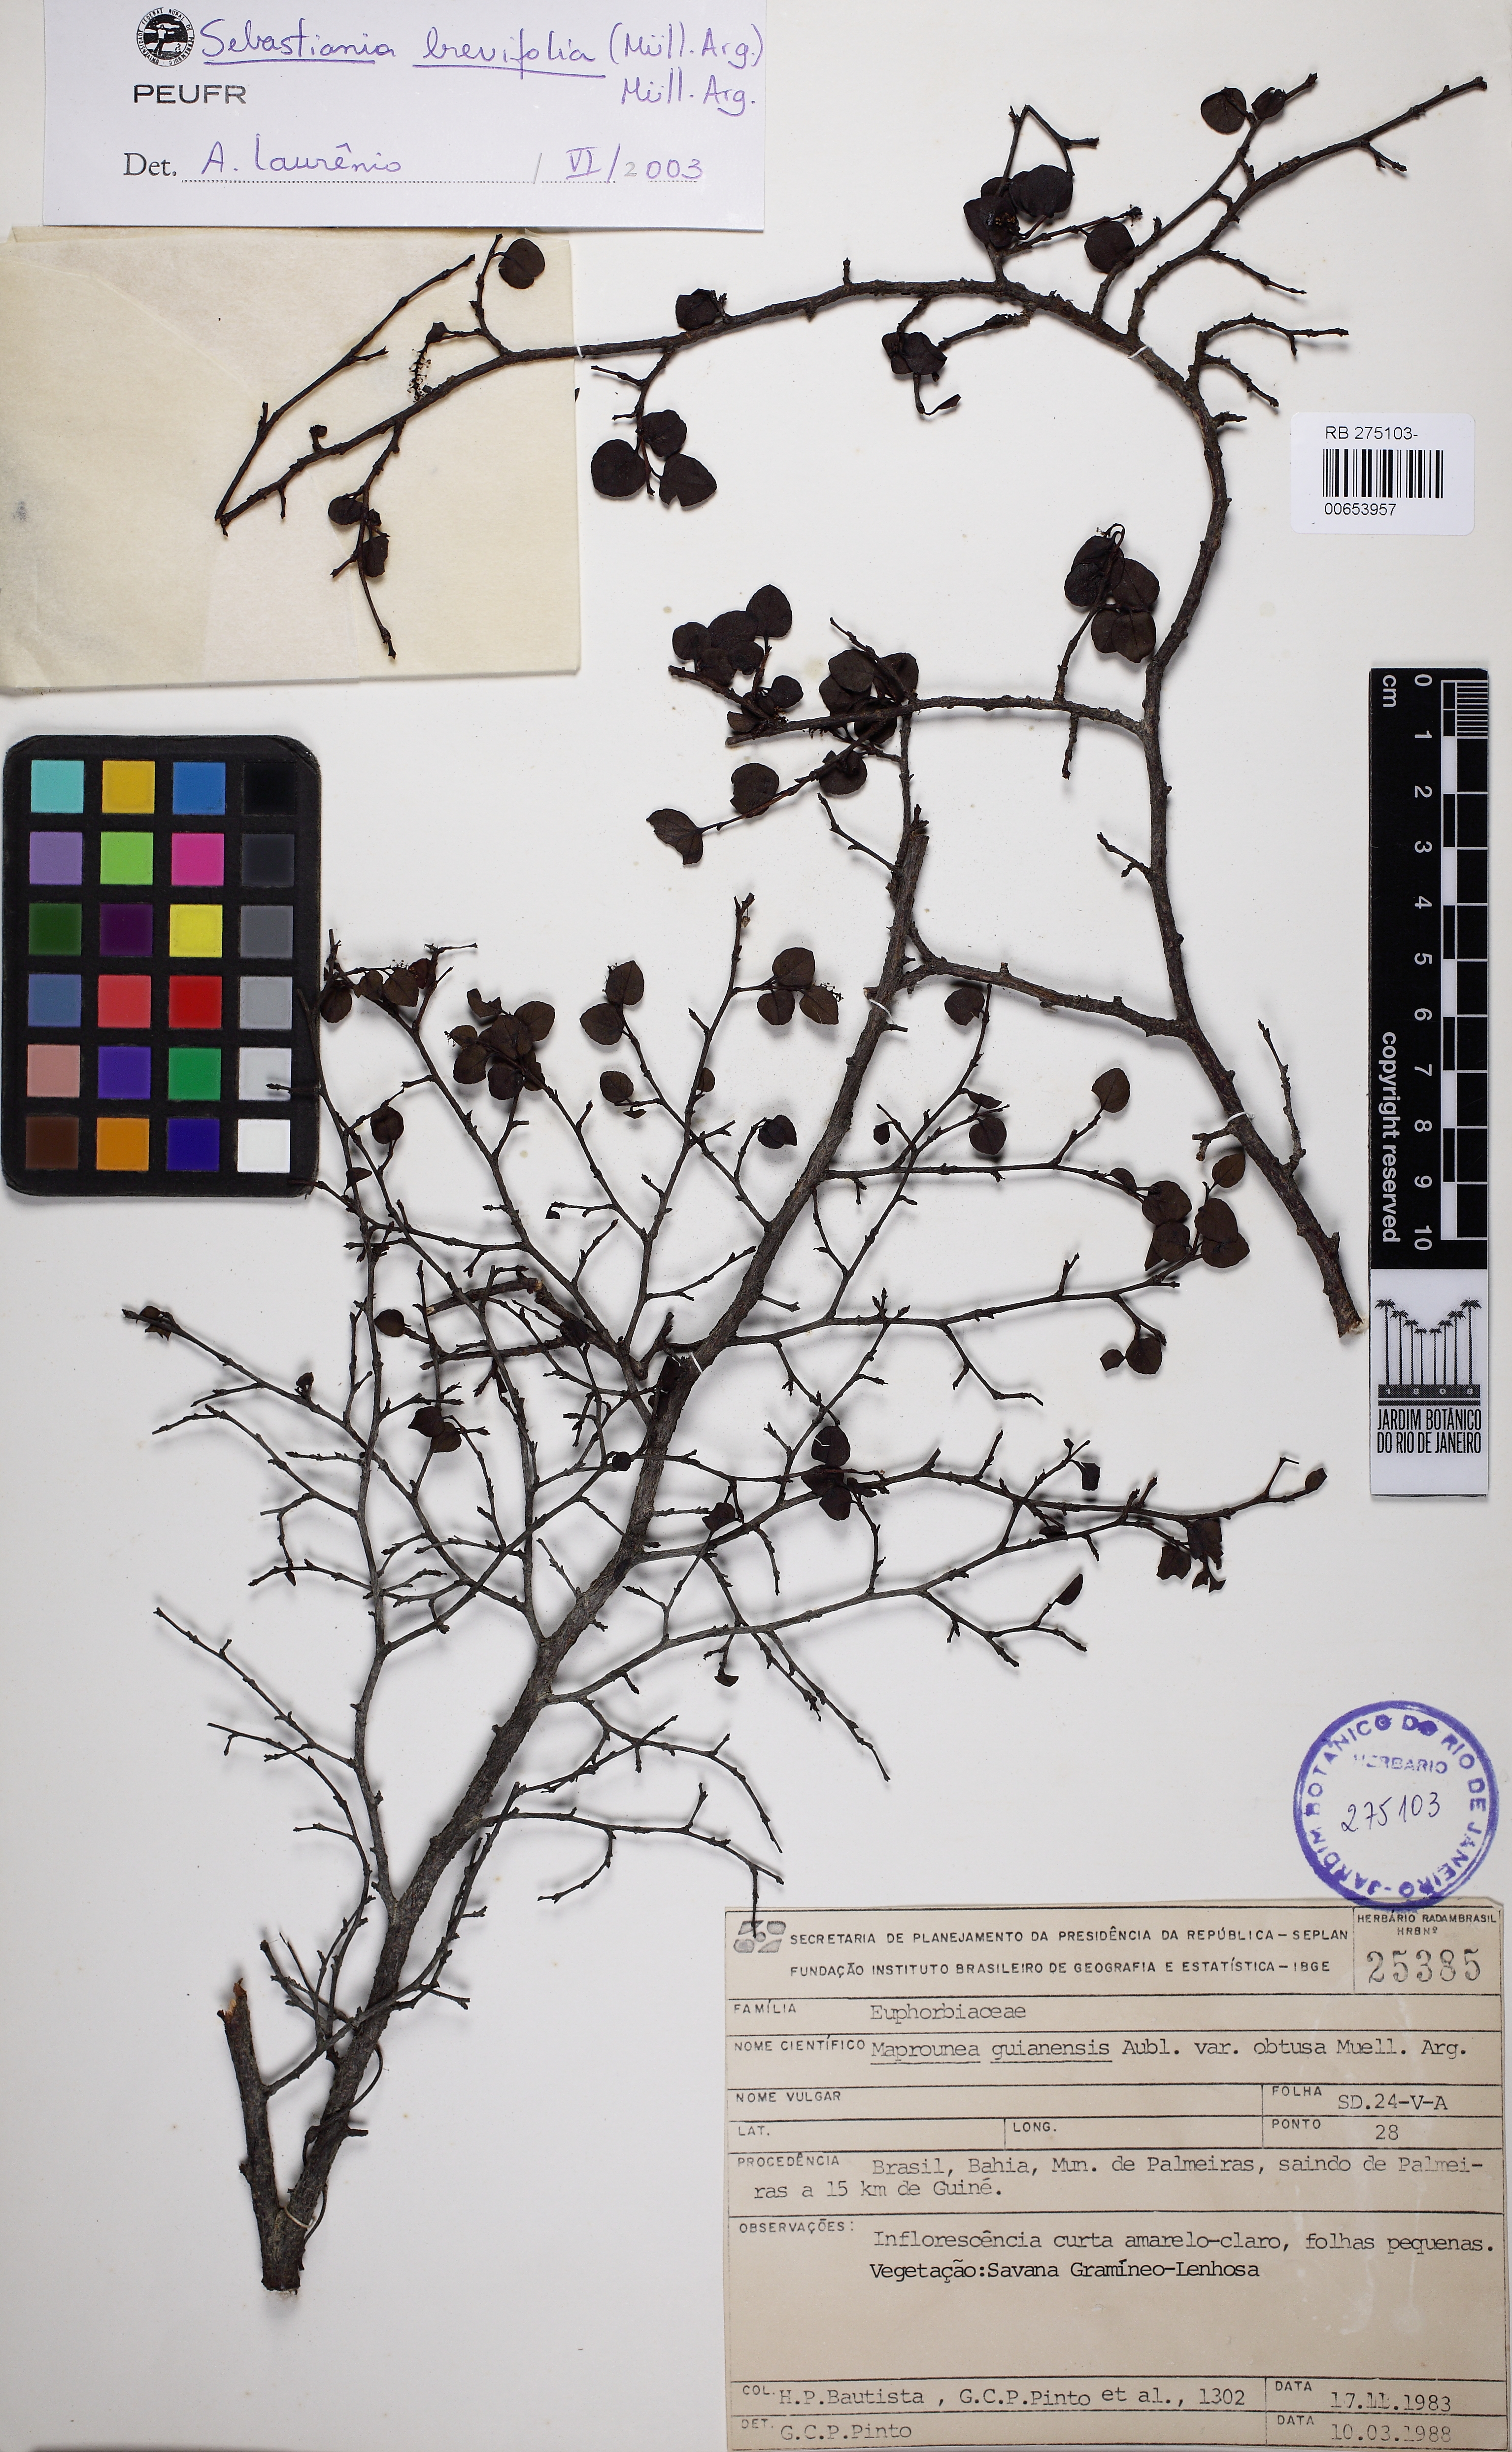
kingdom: Plantae
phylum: Tracheophyta
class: Magnoliopsida
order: Malpighiales
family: Euphorbiaceae
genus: Sebastiania
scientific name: Sebastiania brevifolia
